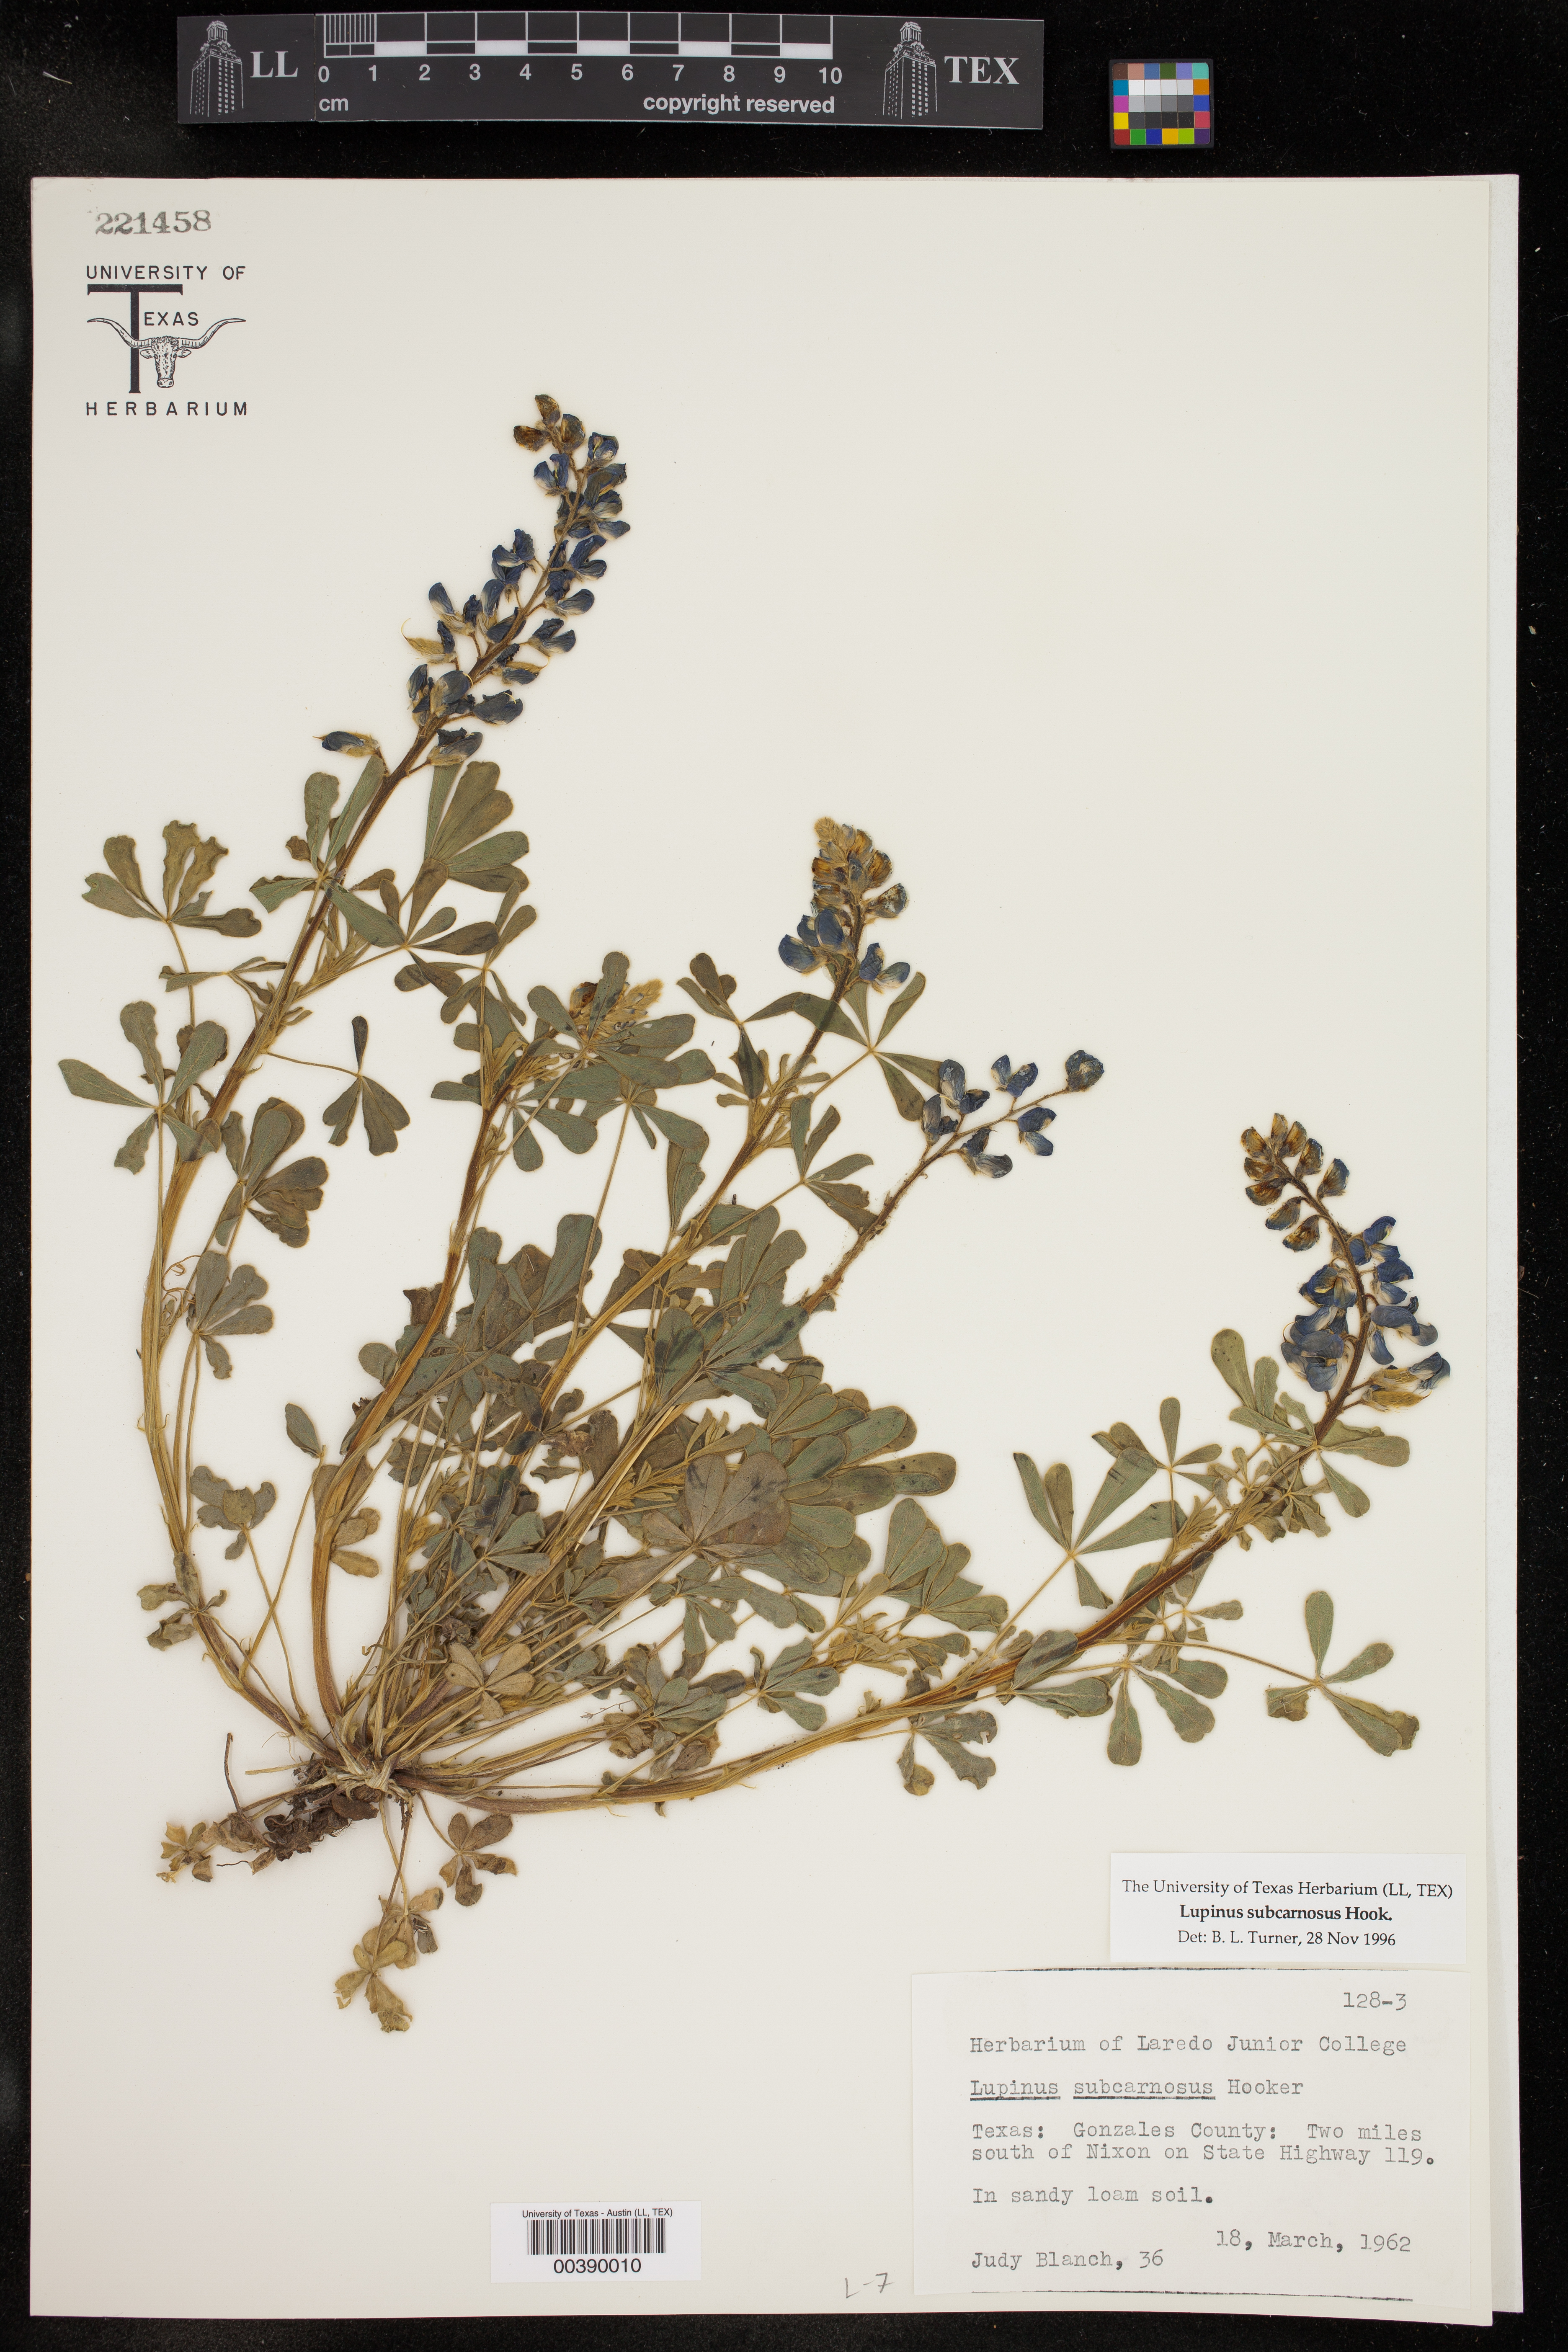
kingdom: Plantae
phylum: Tracheophyta
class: Magnoliopsida
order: Fabales
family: Fabaceae
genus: Lupinus
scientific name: Lupinus subcarnosus
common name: Texas bluebonnet
